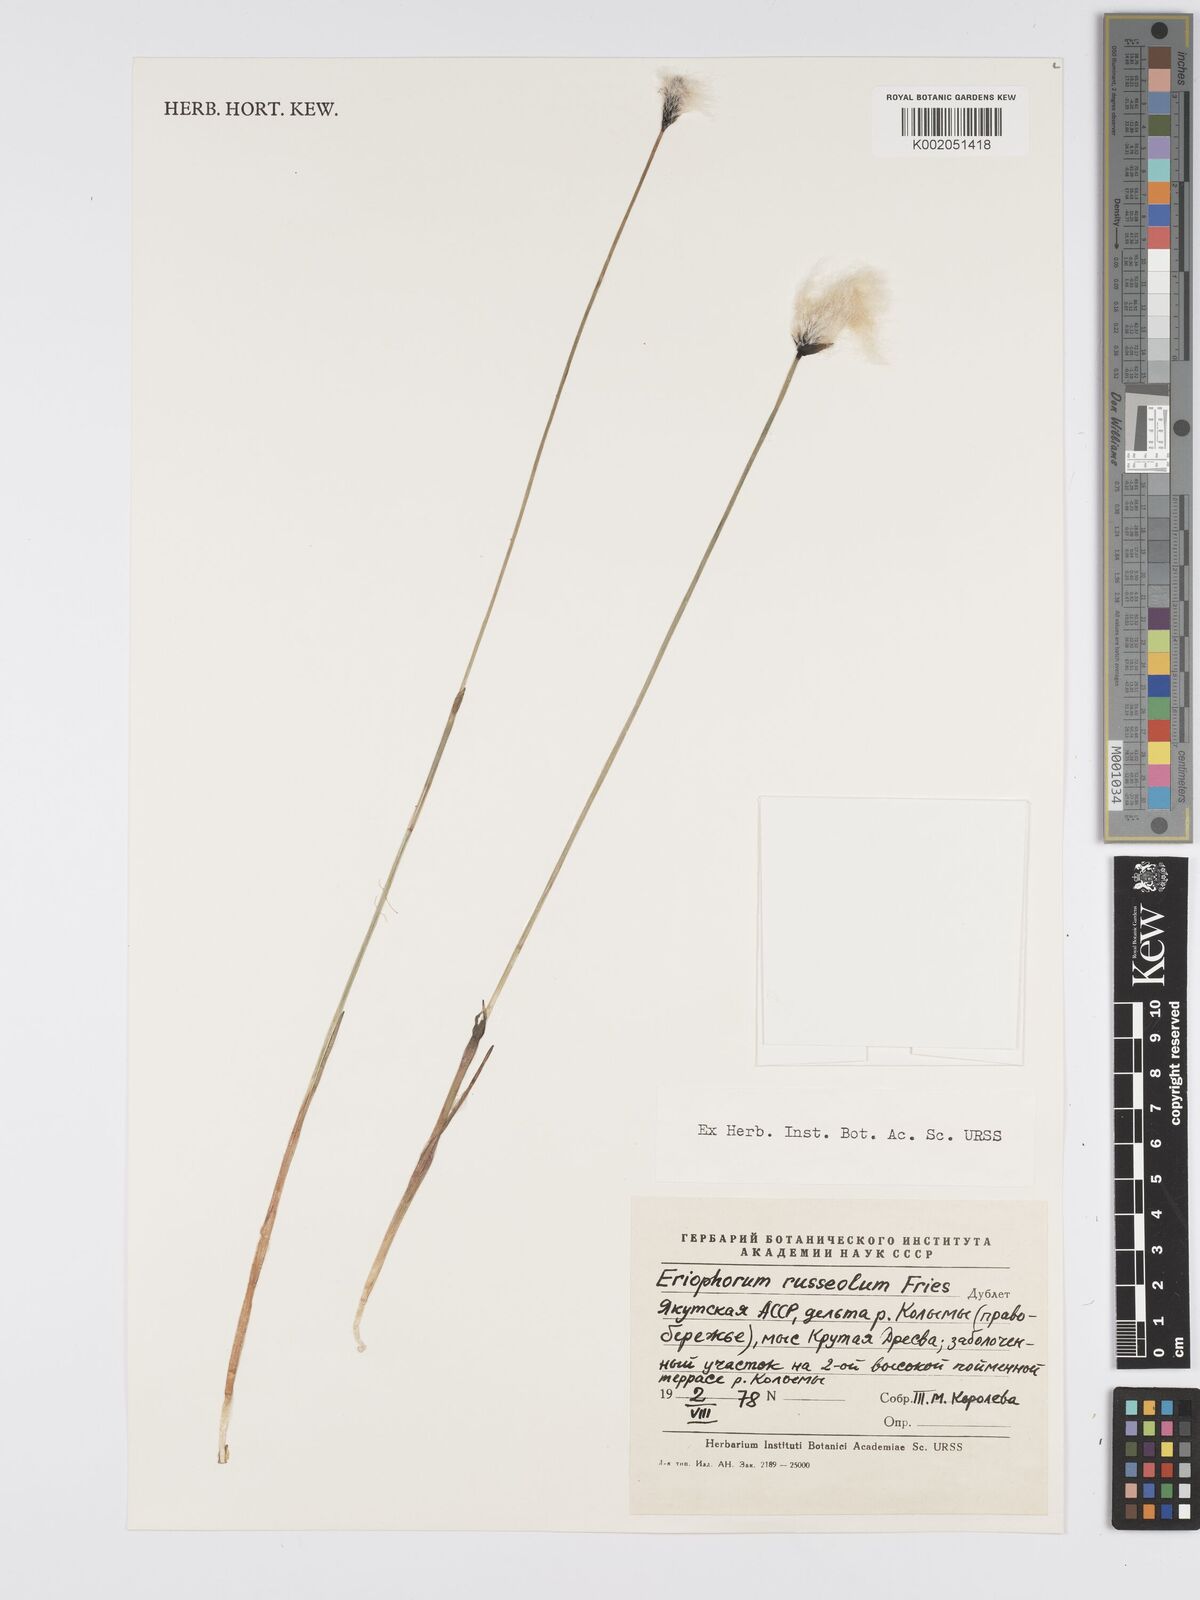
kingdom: Plantae
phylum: Tracheophyta
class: Liliopsida
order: Poales
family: Cyperaceae
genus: Eriophorum
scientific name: Eriophorum scheuchzeri
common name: Scheuchzer's cottongrass
